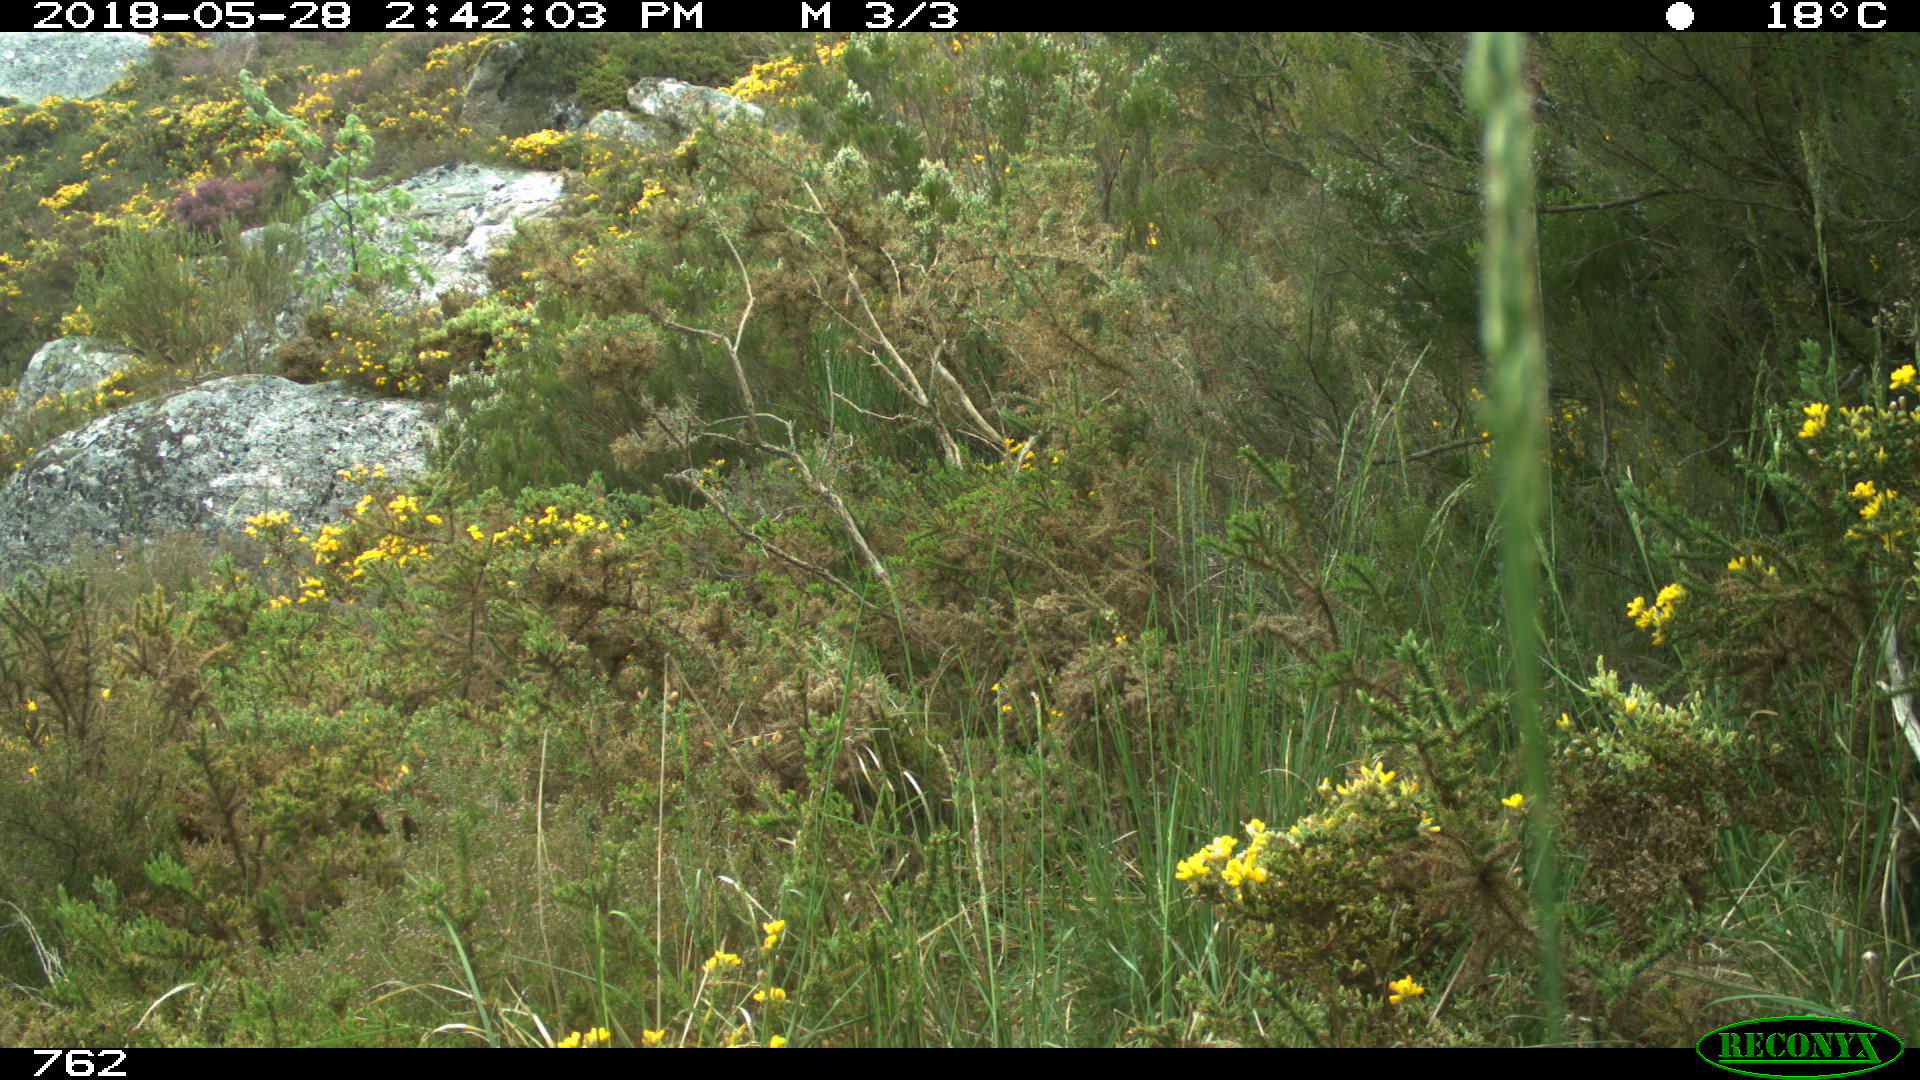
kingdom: Animalia
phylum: Chordata
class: Mammalia
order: Artiodactyla
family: Bovidae
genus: Capra
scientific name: Capra hircus
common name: Domestic goat
